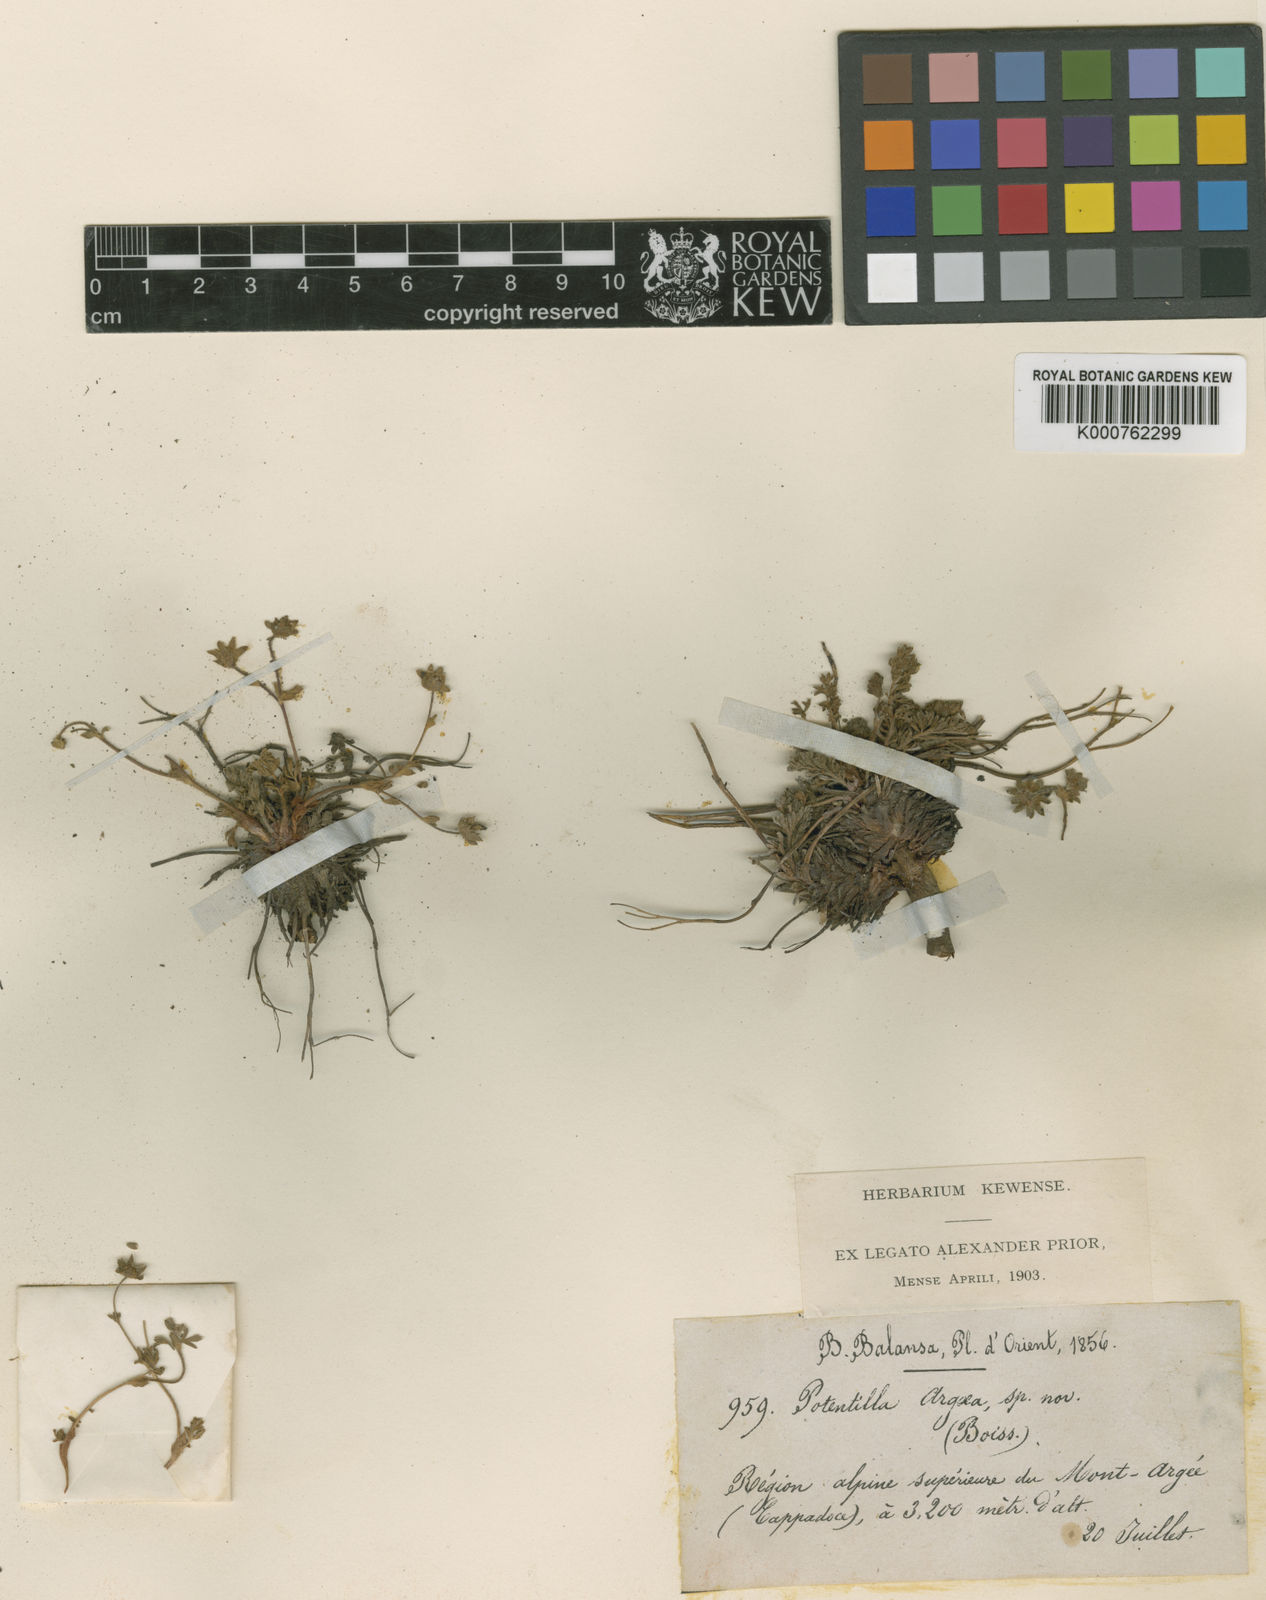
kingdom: Plantae
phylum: Tracheophyta
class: Magnoliopsida
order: Rosales
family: Rosaceae
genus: Potentilla
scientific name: Potentilla argaea
